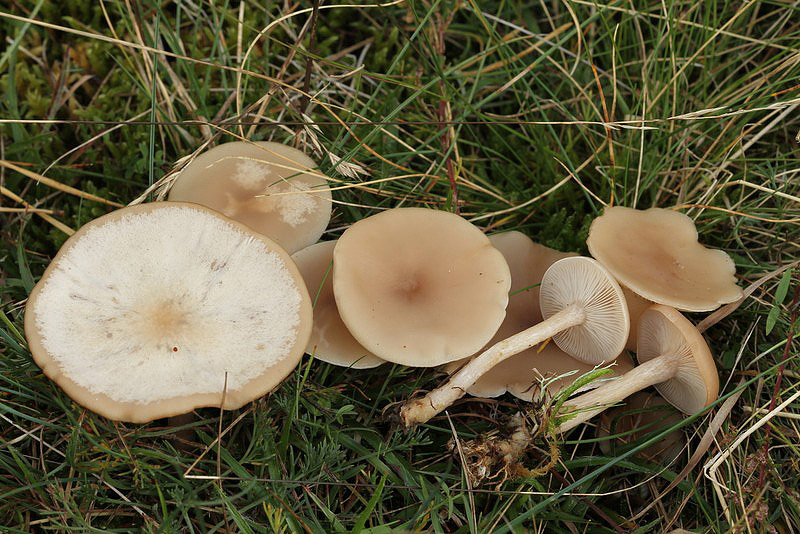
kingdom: Fungi
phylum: Basidiomycota
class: Agaricomycetes
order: Agaricales
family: Tricholomataceae
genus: Clitocybe
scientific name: Clitocybe diatreta
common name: kødfarvet tragthat
